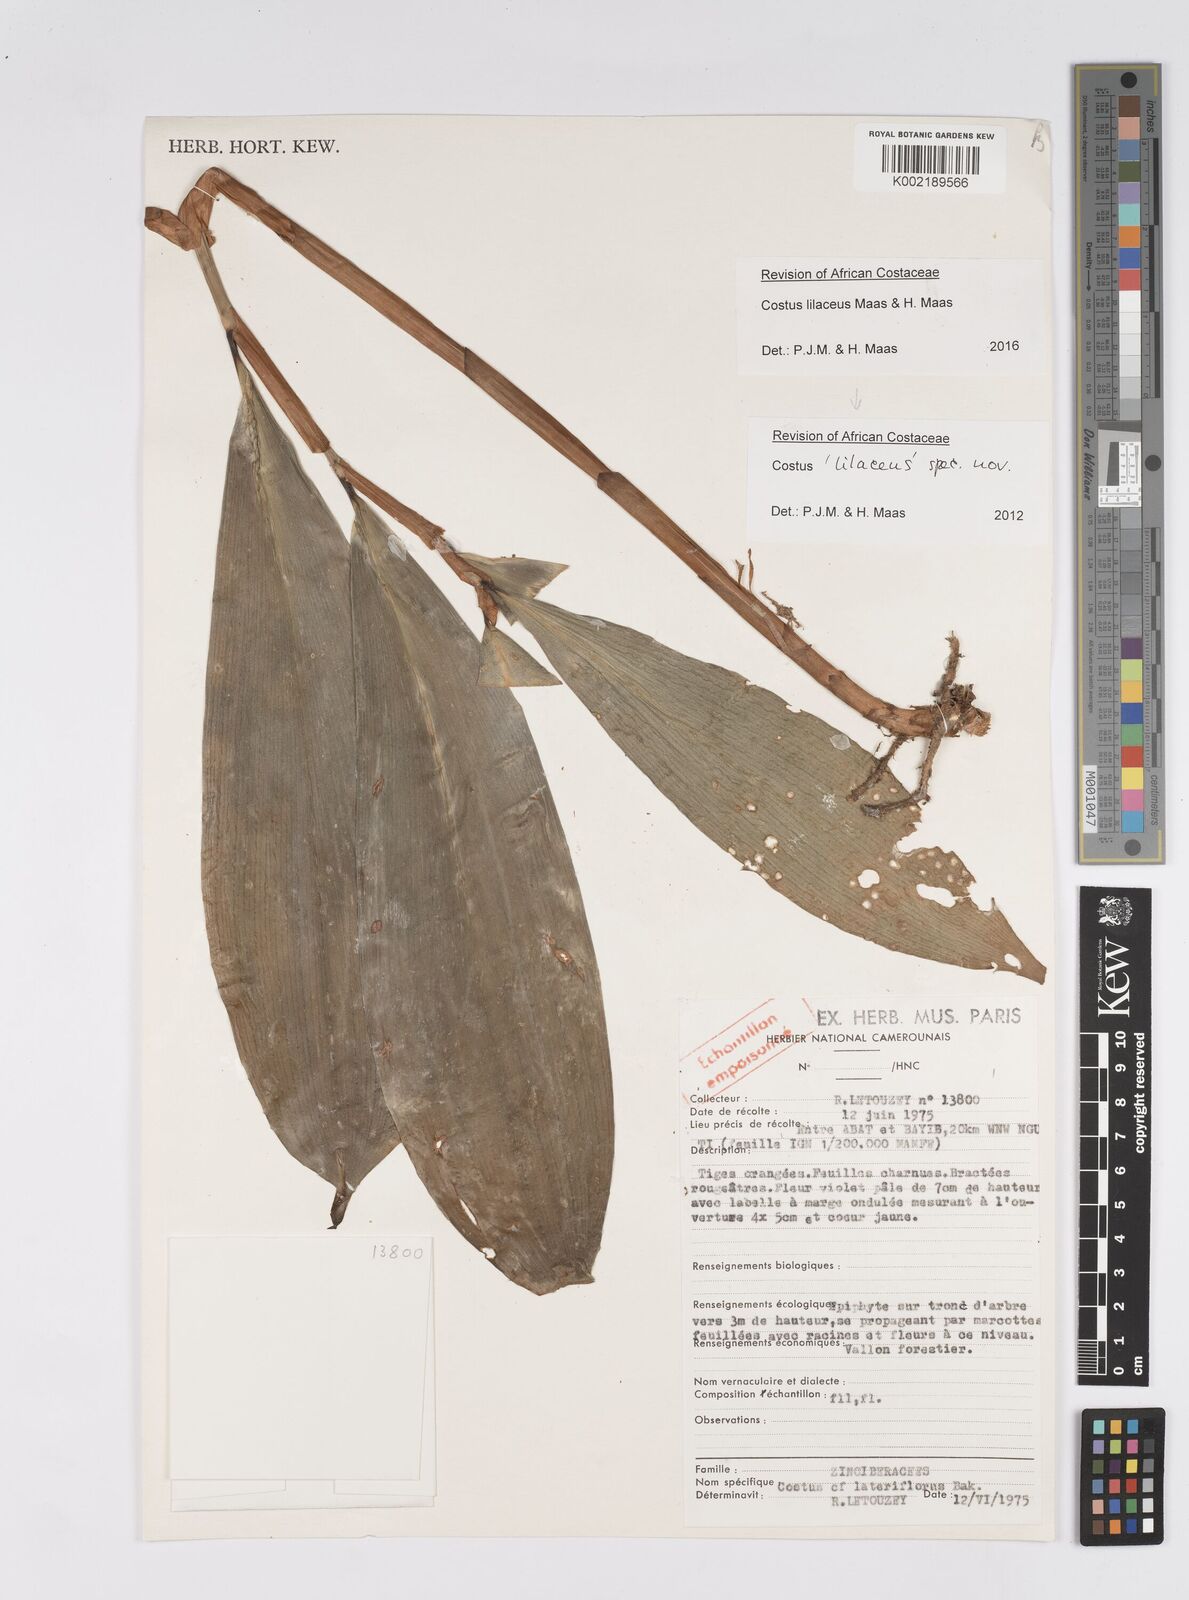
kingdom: Plantae
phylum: Tracheophyta
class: Liliopsida
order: Zingiberales
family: Costaceae
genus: Costus
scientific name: Costus lilaceus
